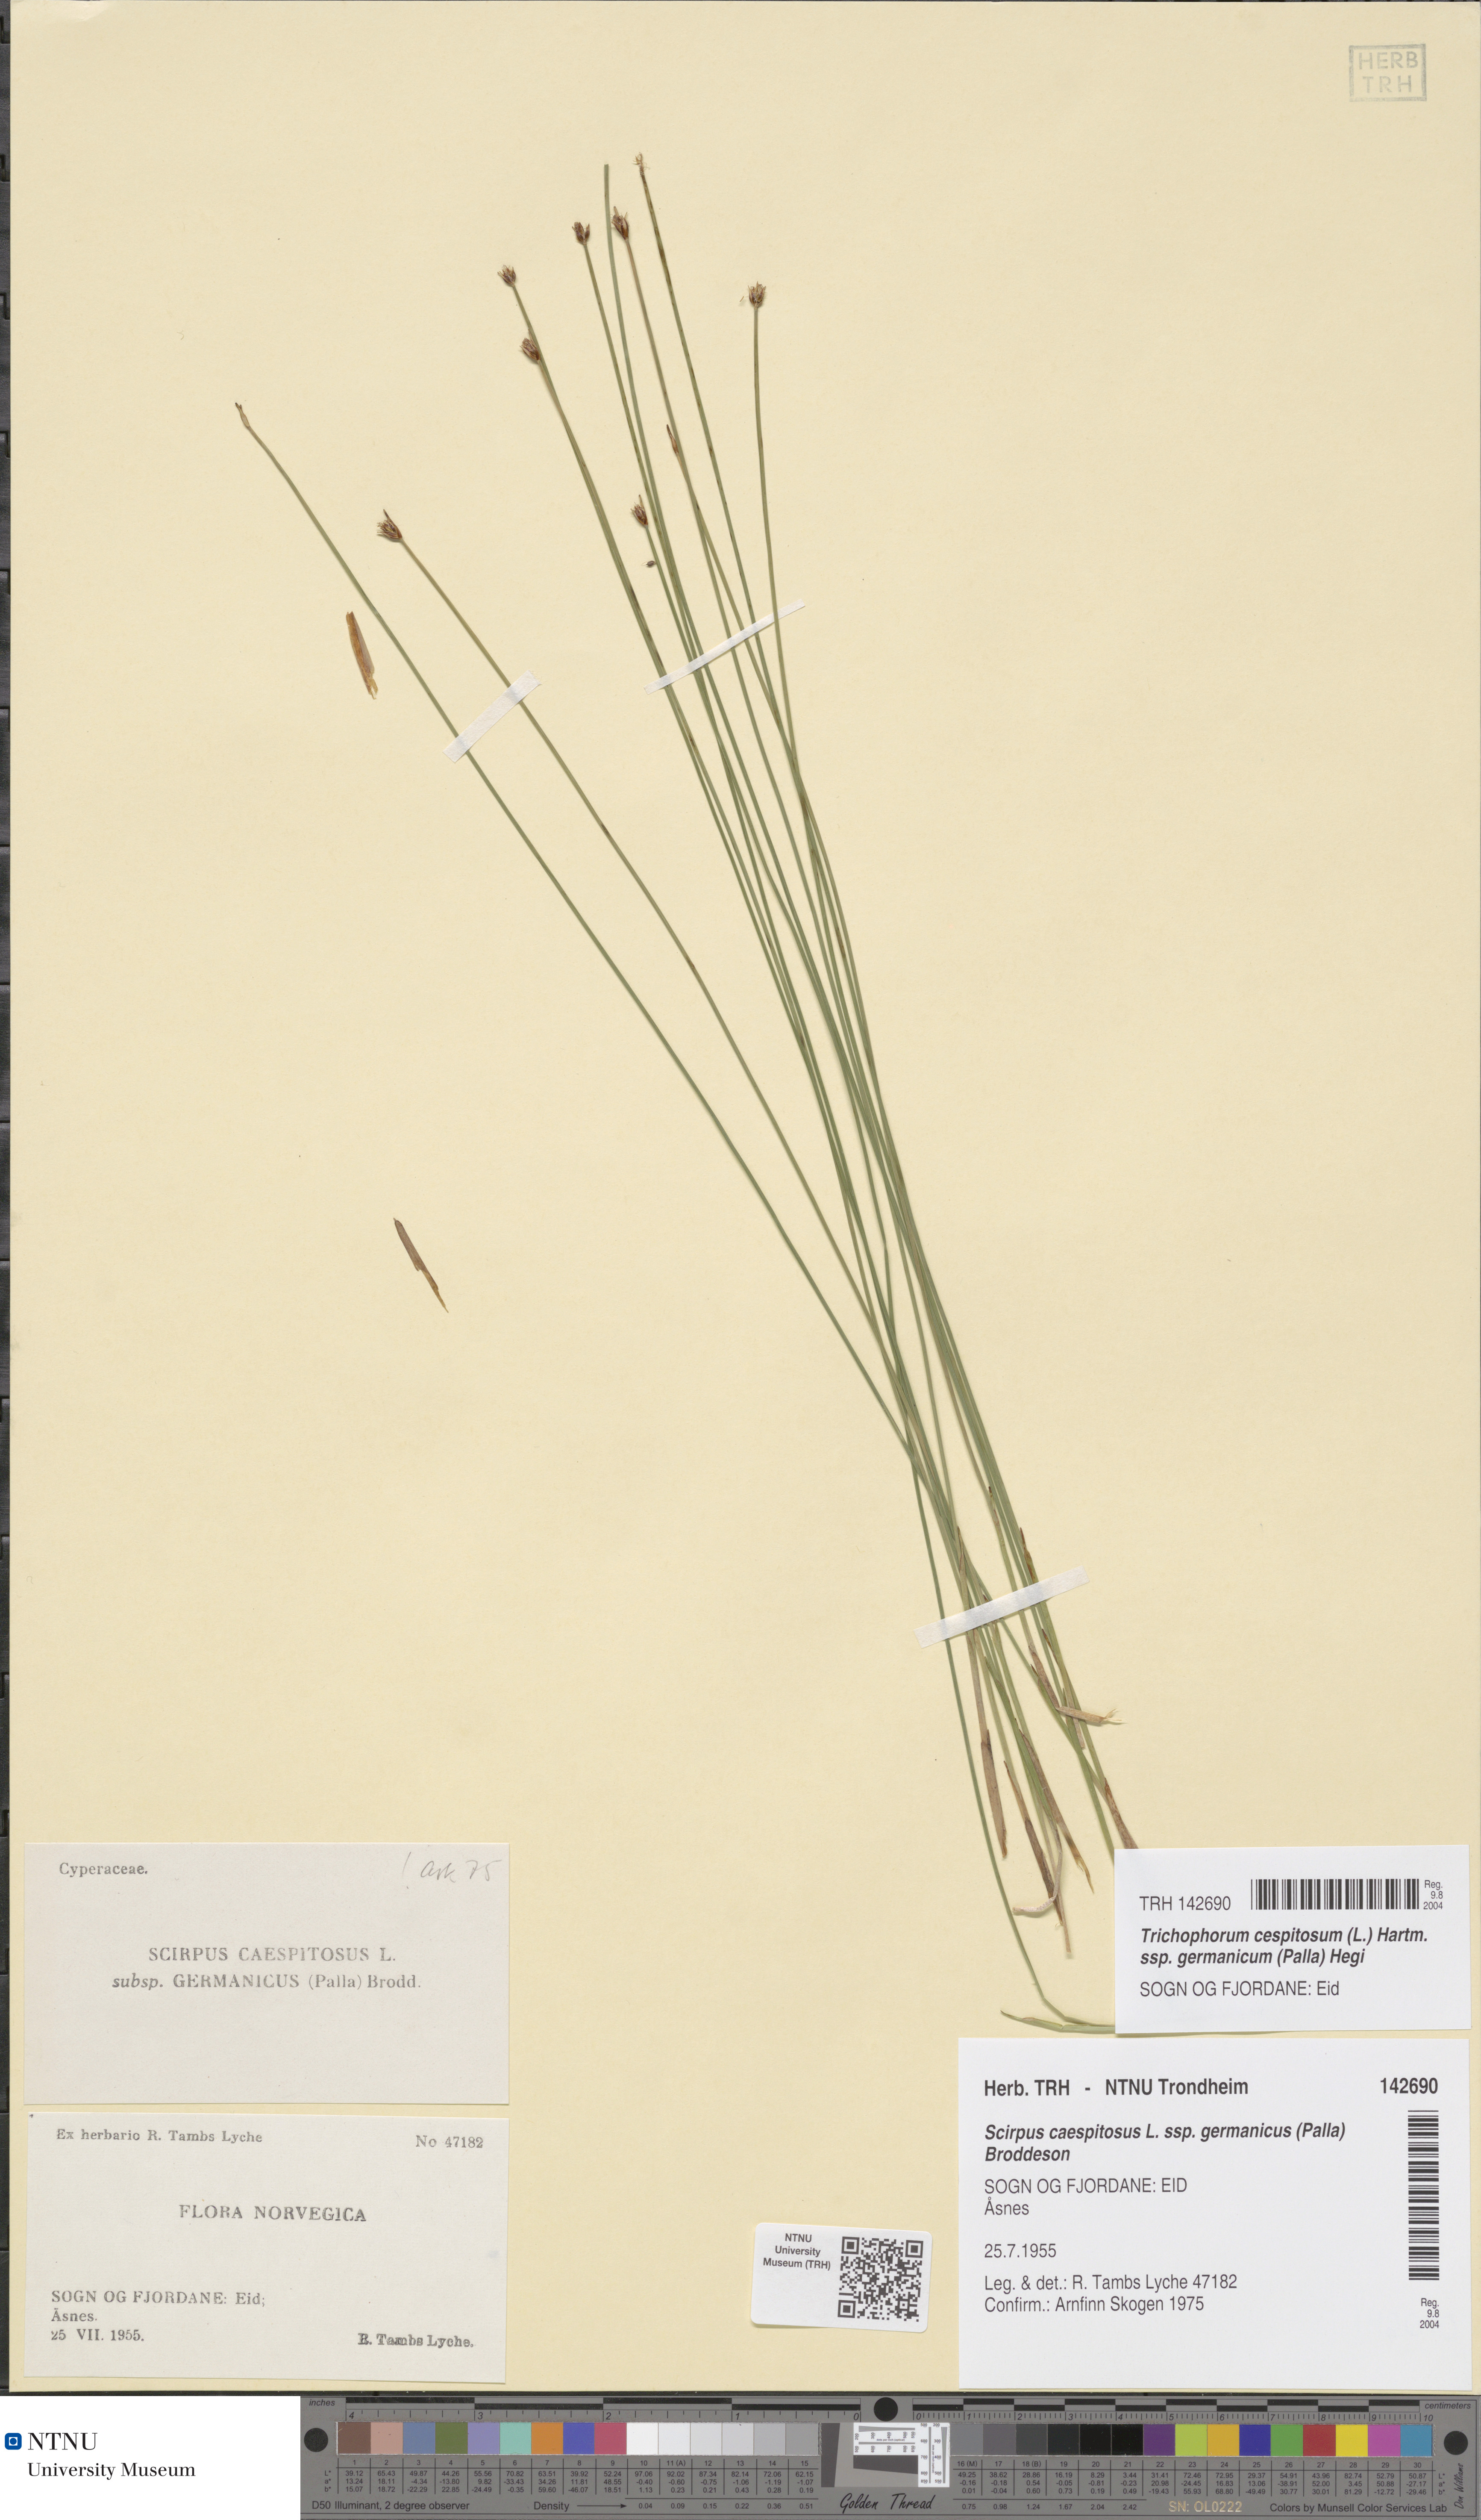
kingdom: Plantae
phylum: Tracheophyta
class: Liliopsida
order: Poales
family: Cyperaceae
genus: Trichophorum
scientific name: Trichophorum cespitosum
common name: Cespitose bulrush
